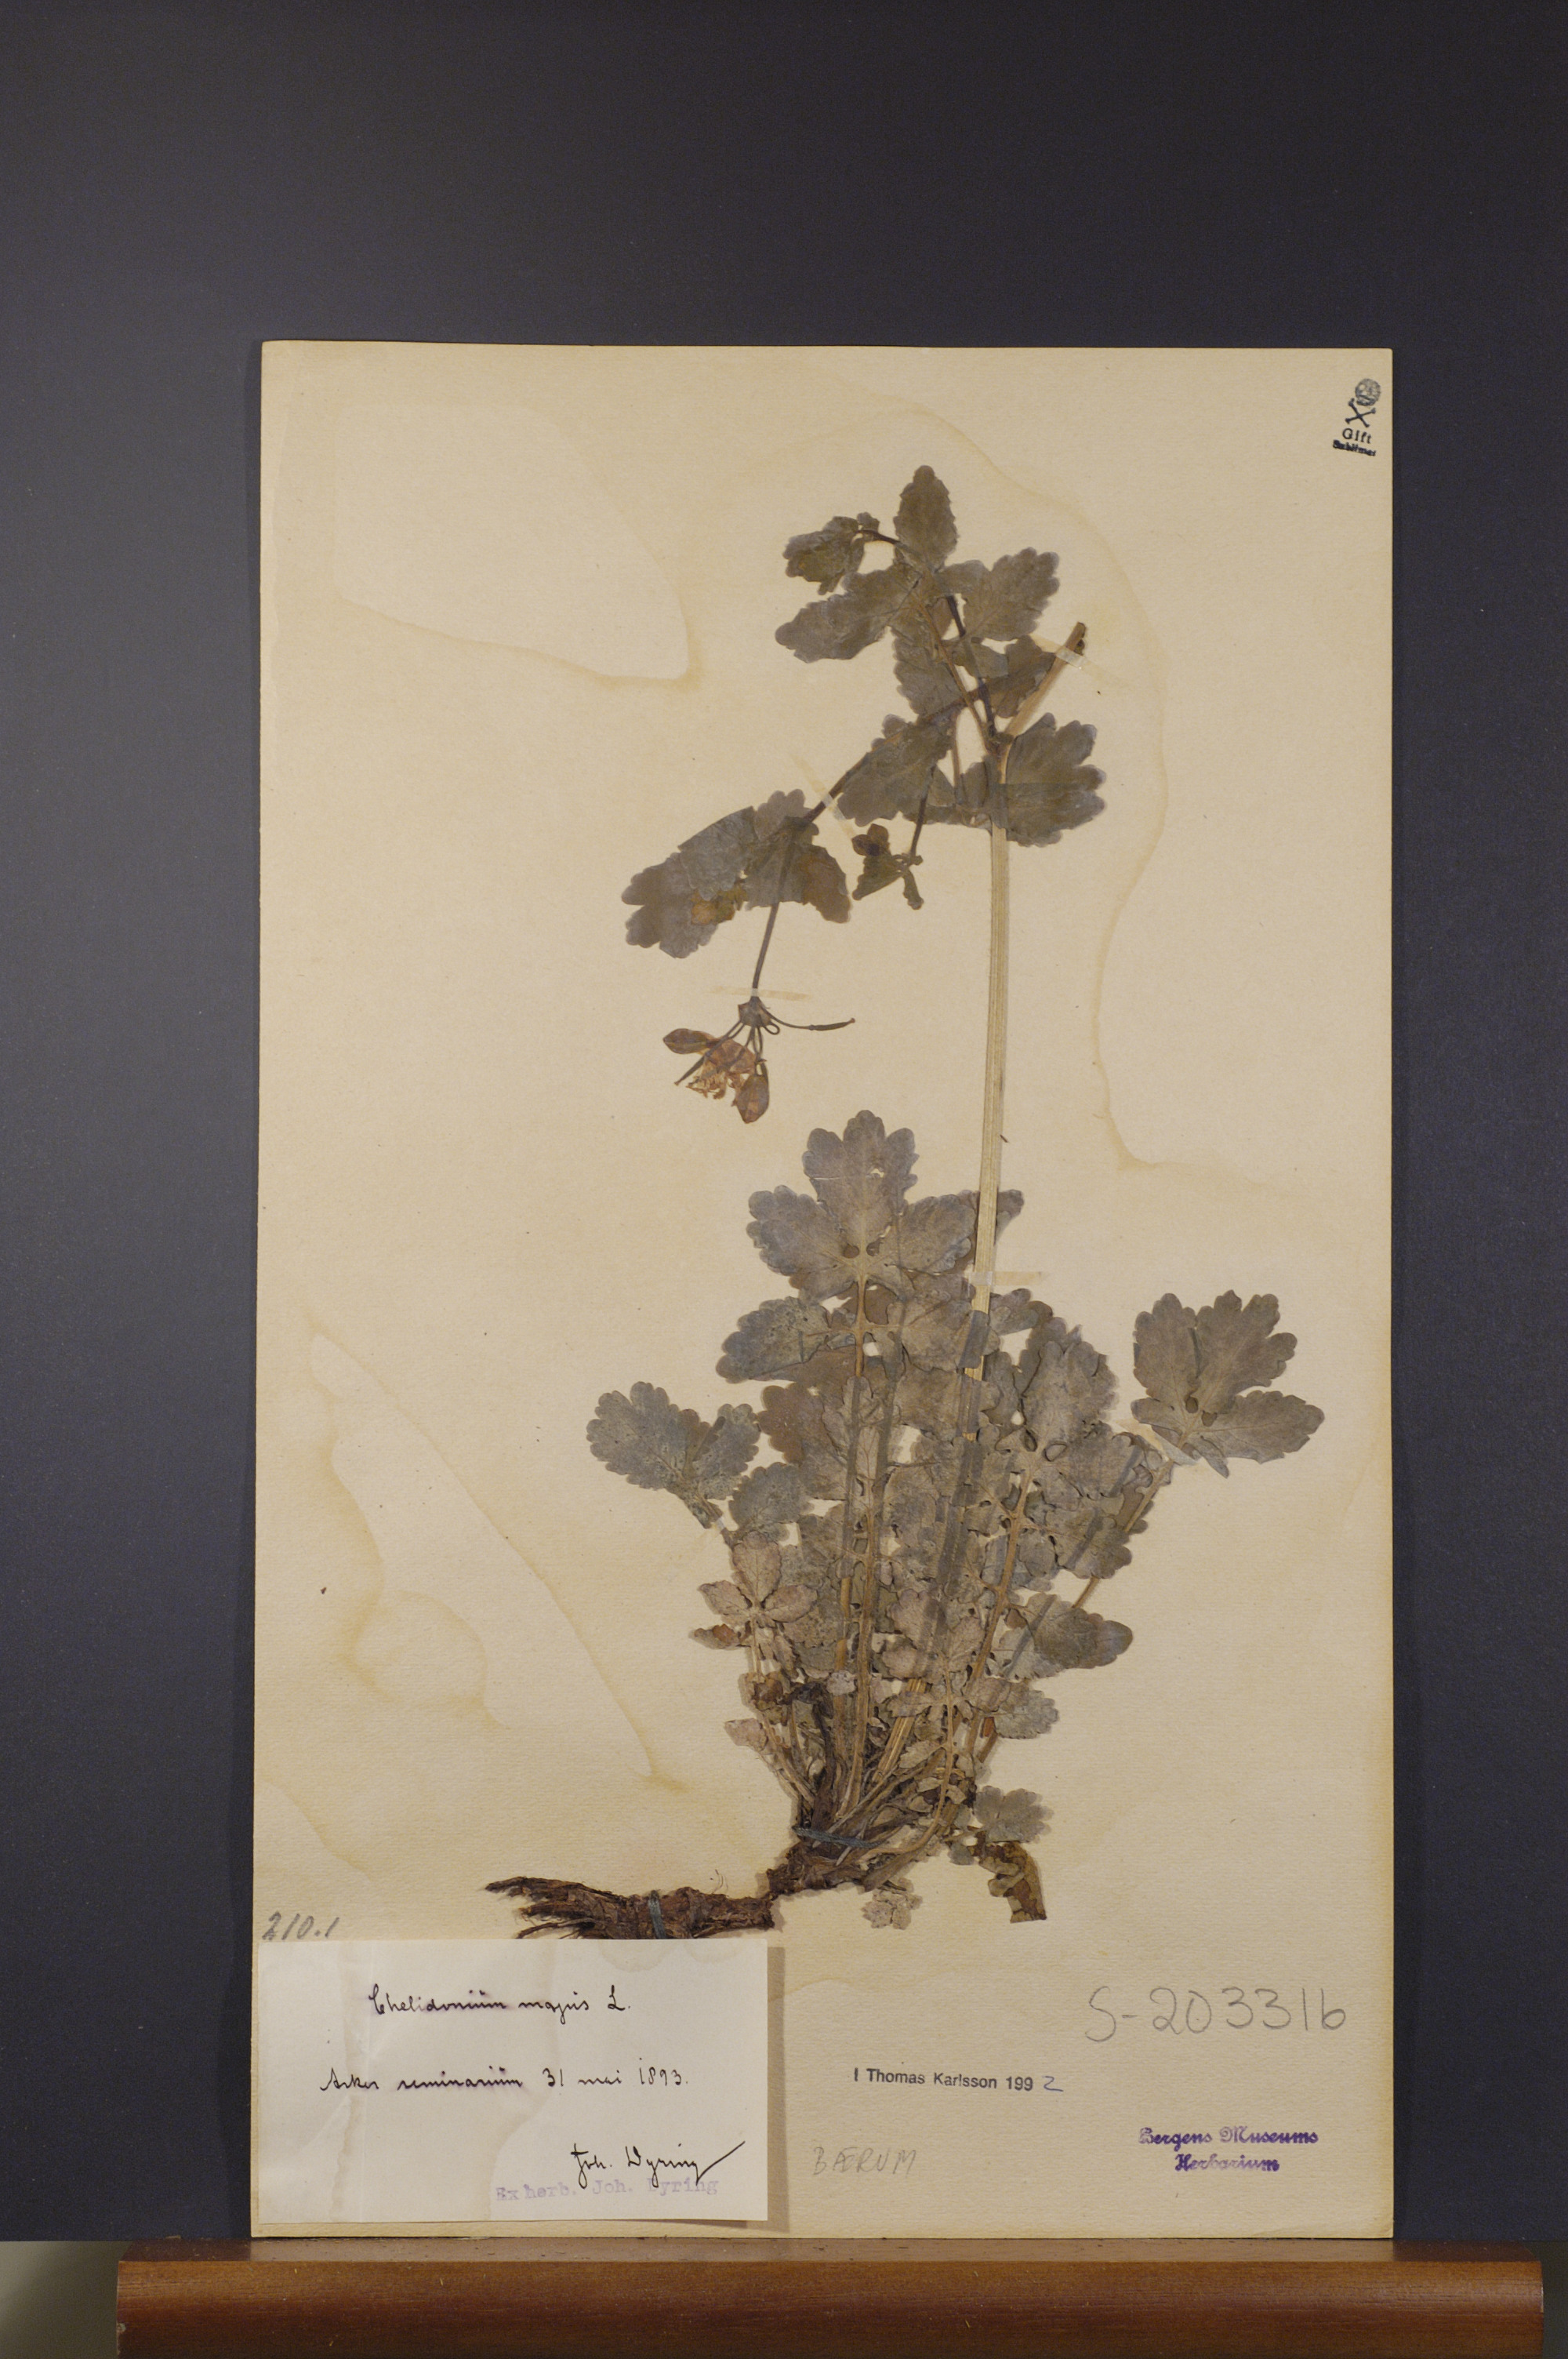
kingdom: Plantae
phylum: Tracheophyta
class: Magnoliopsida
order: Ranunculales
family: Papaveraceae
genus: Chelidonium
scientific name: Chelidonium majus
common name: Greater celandine
